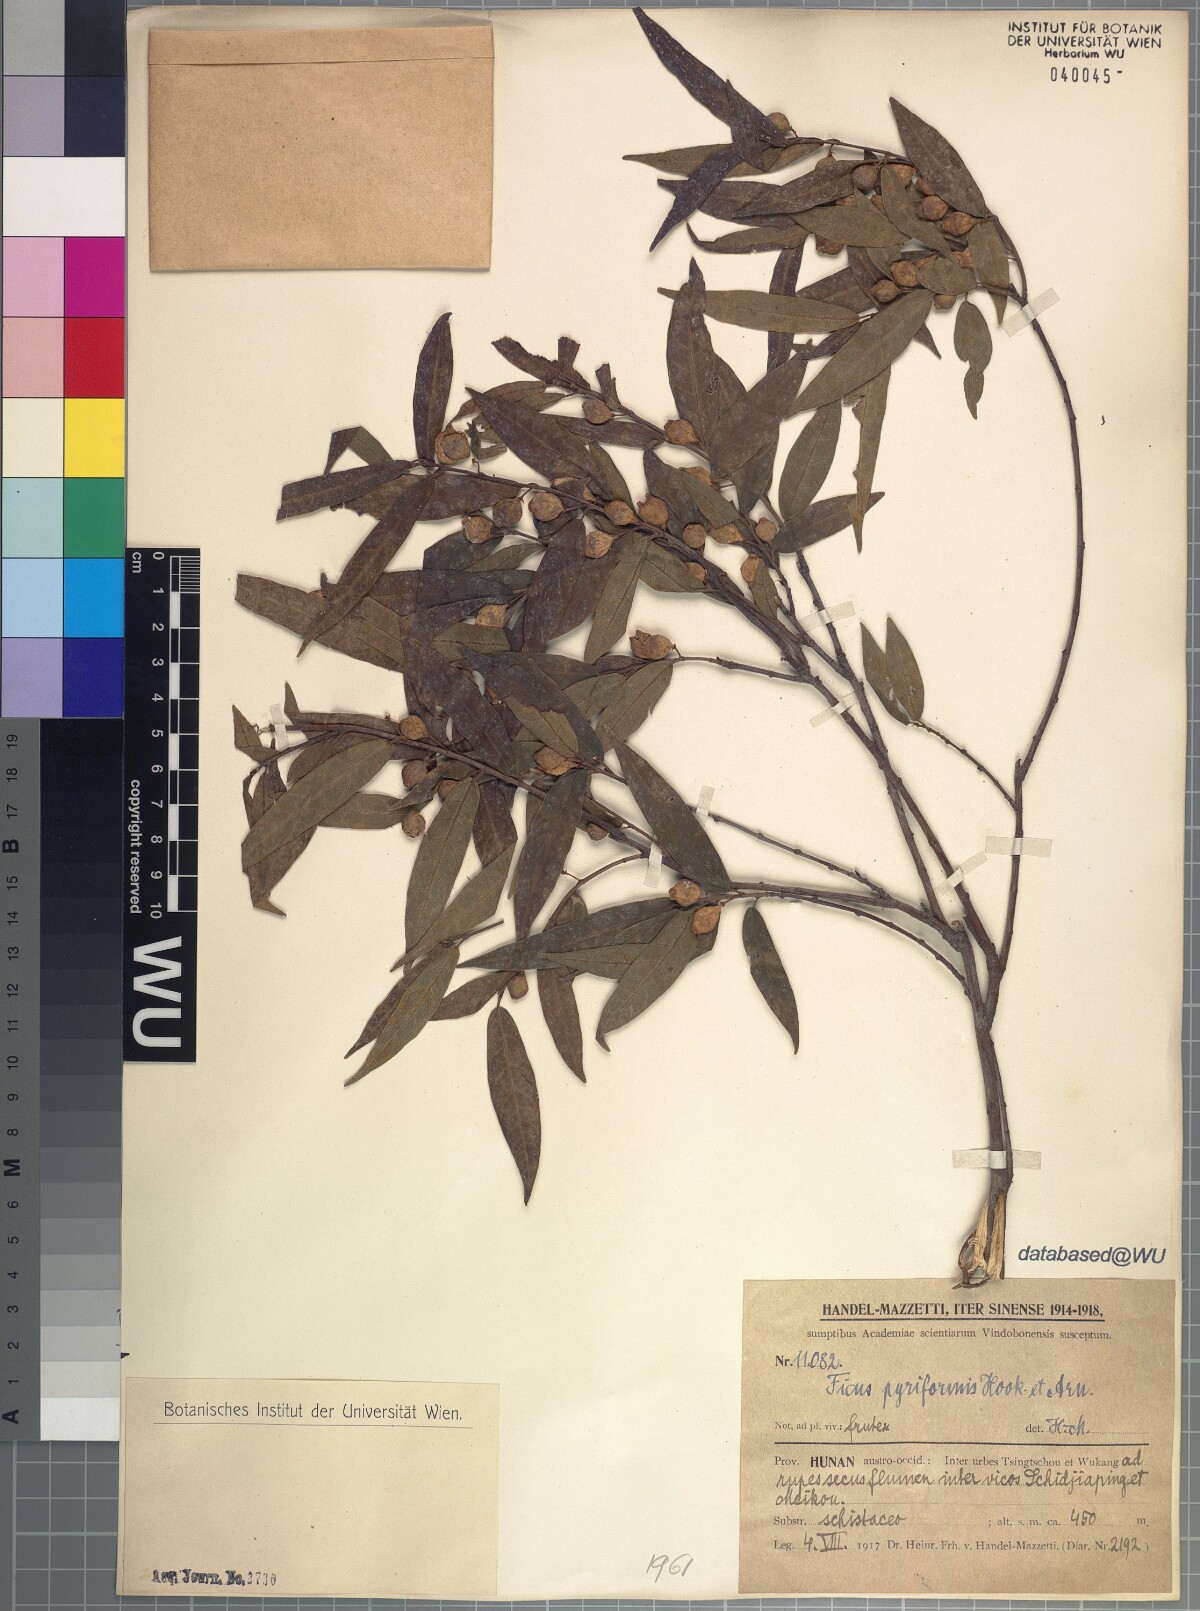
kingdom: Plantae
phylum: Tracheophyta
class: Magnoliopsida
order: Rosales
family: Moraceae
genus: Ficus
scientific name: Ficus pyriformis
